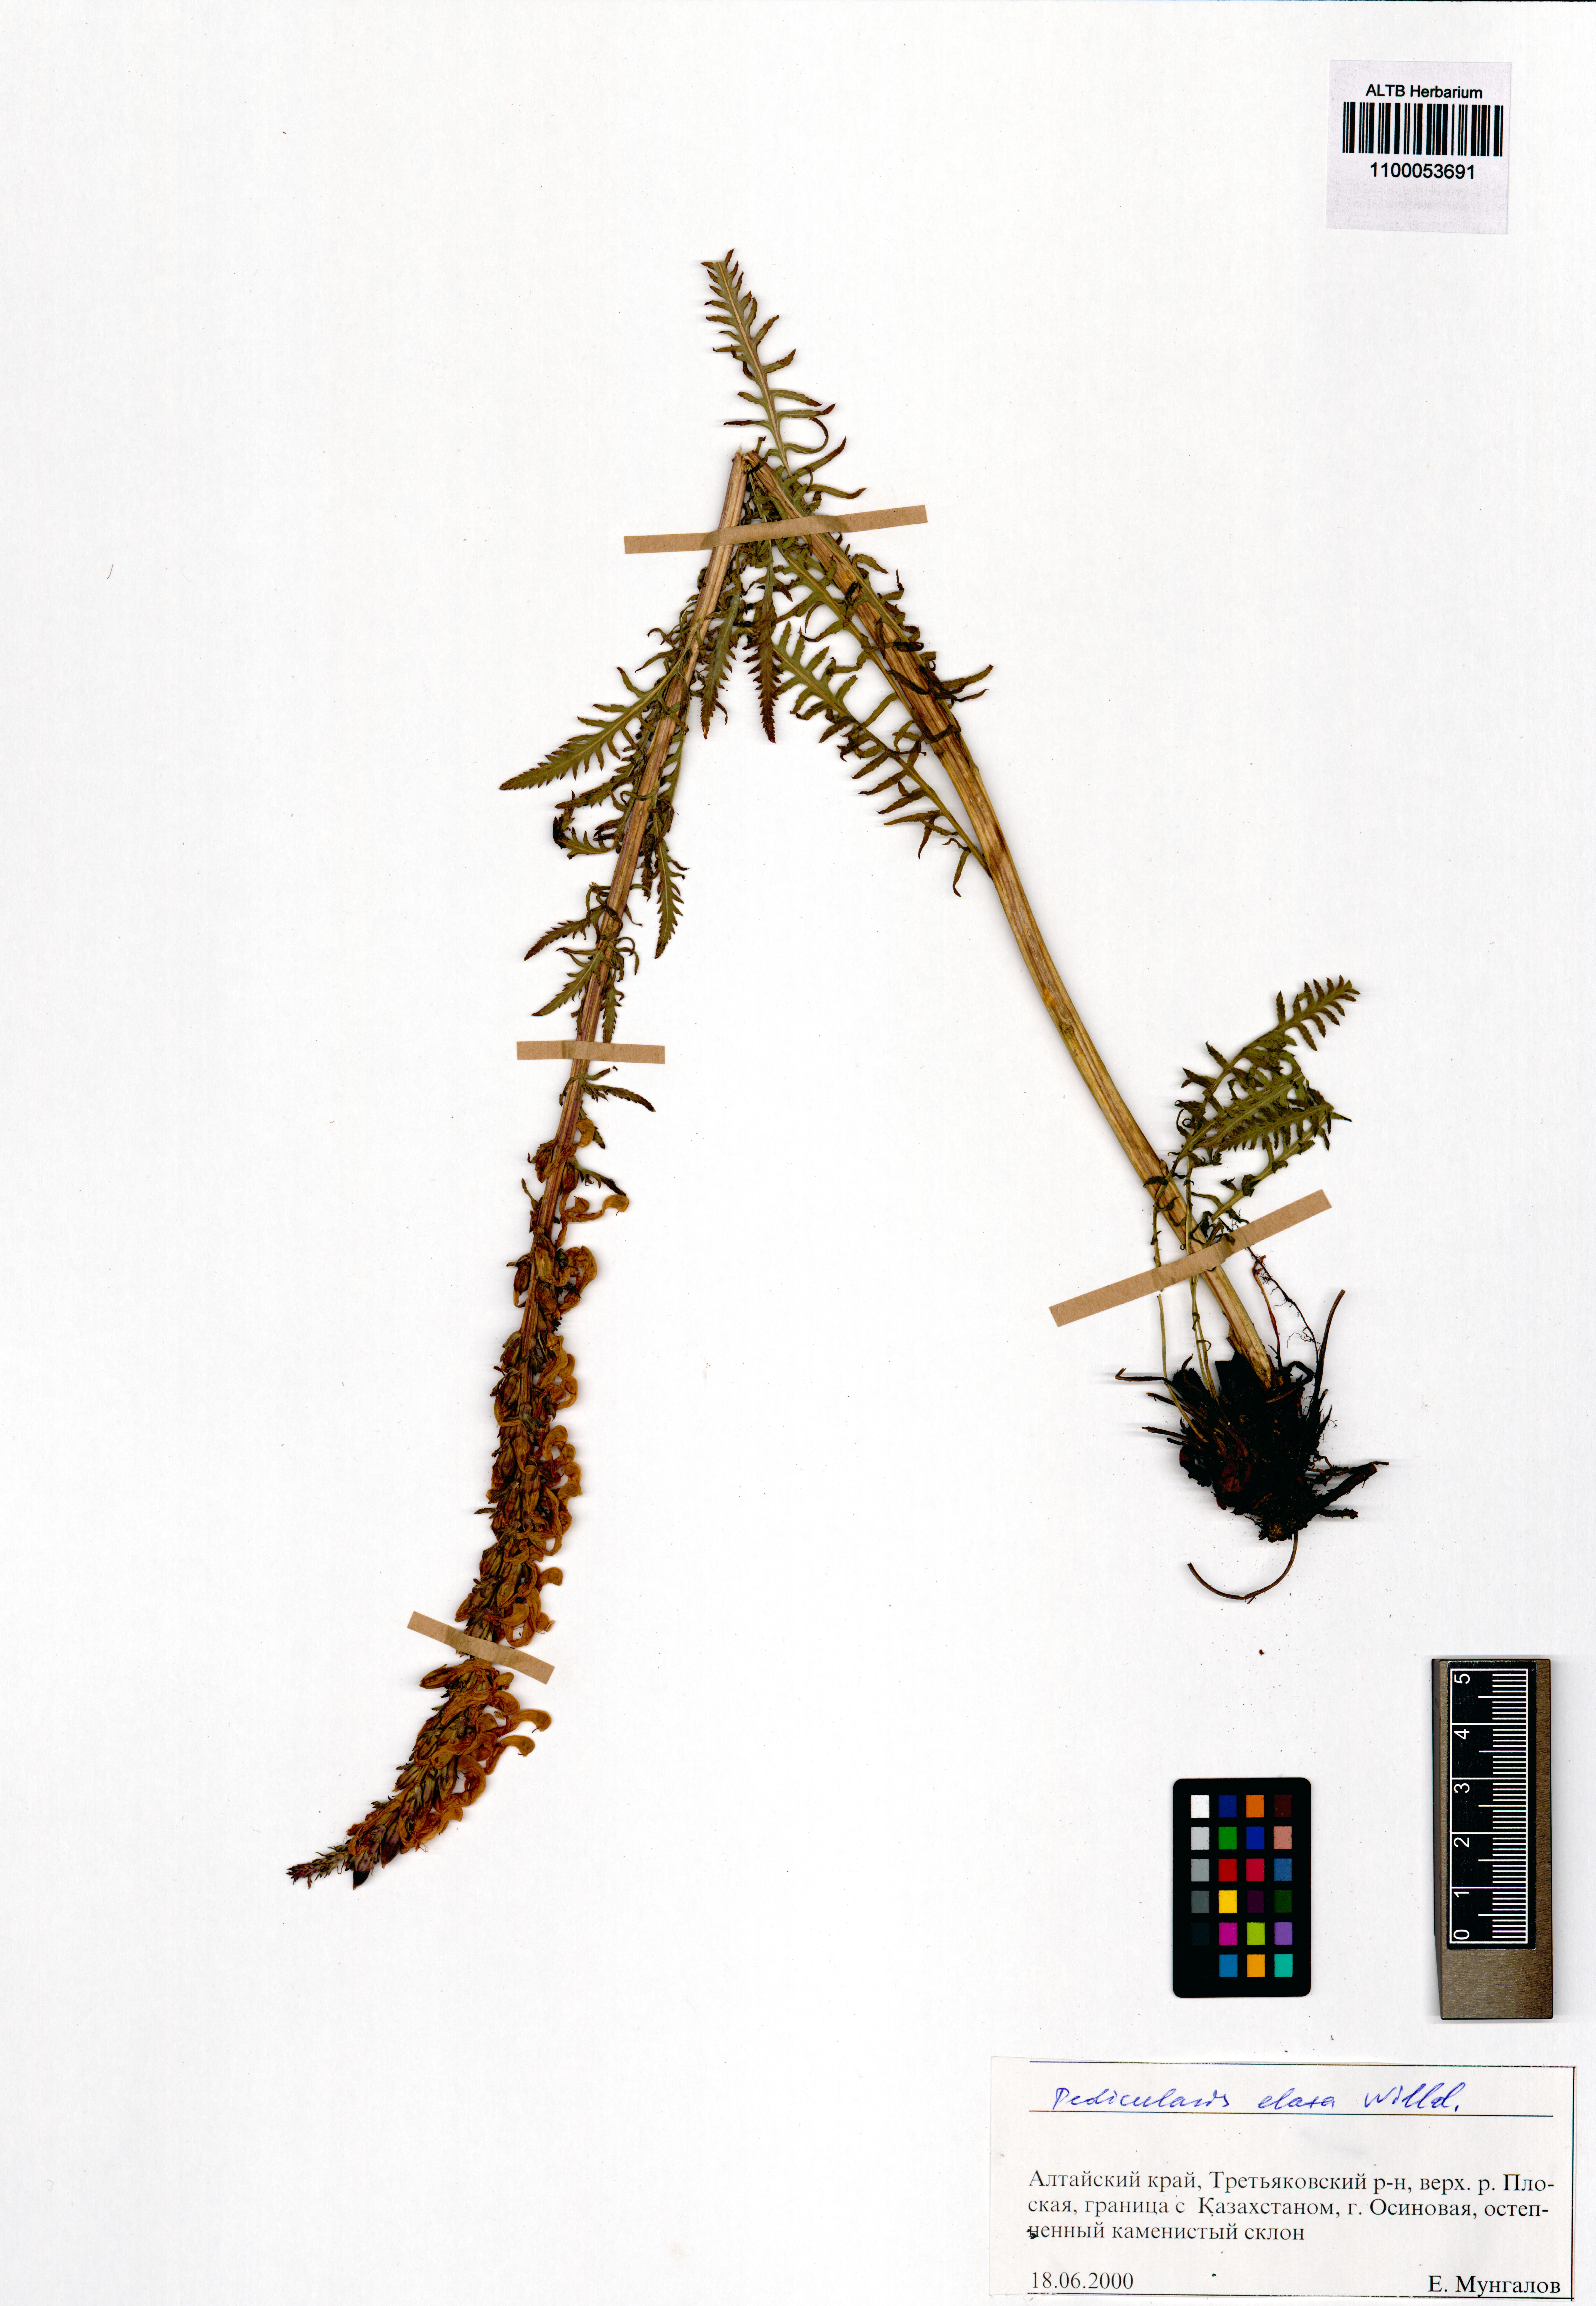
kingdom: Plantae
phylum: Tracheophyta
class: Magnoliopsida
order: Lamiales
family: Orobanchaceae
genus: Pedicularis
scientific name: Pedicularis elata
